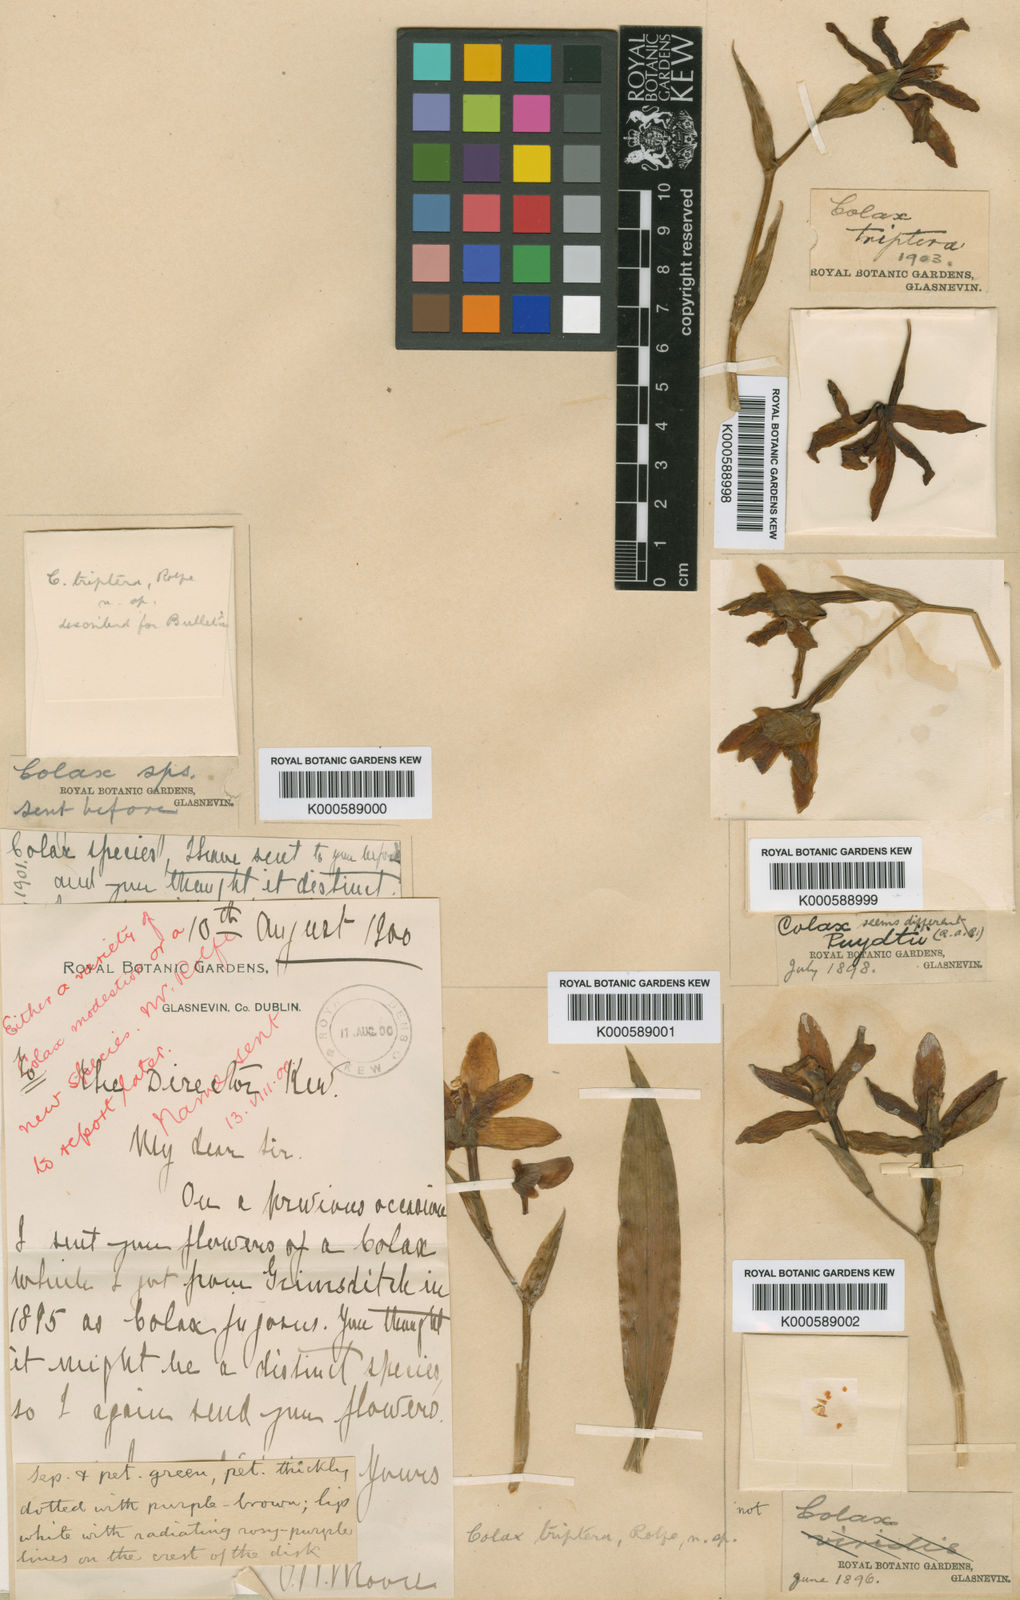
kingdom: Plantae
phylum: Tracheophyta
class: Liliopsida
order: Asparagales
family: Orchidaceae
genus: Pabstia
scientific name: Pabstia viridis
